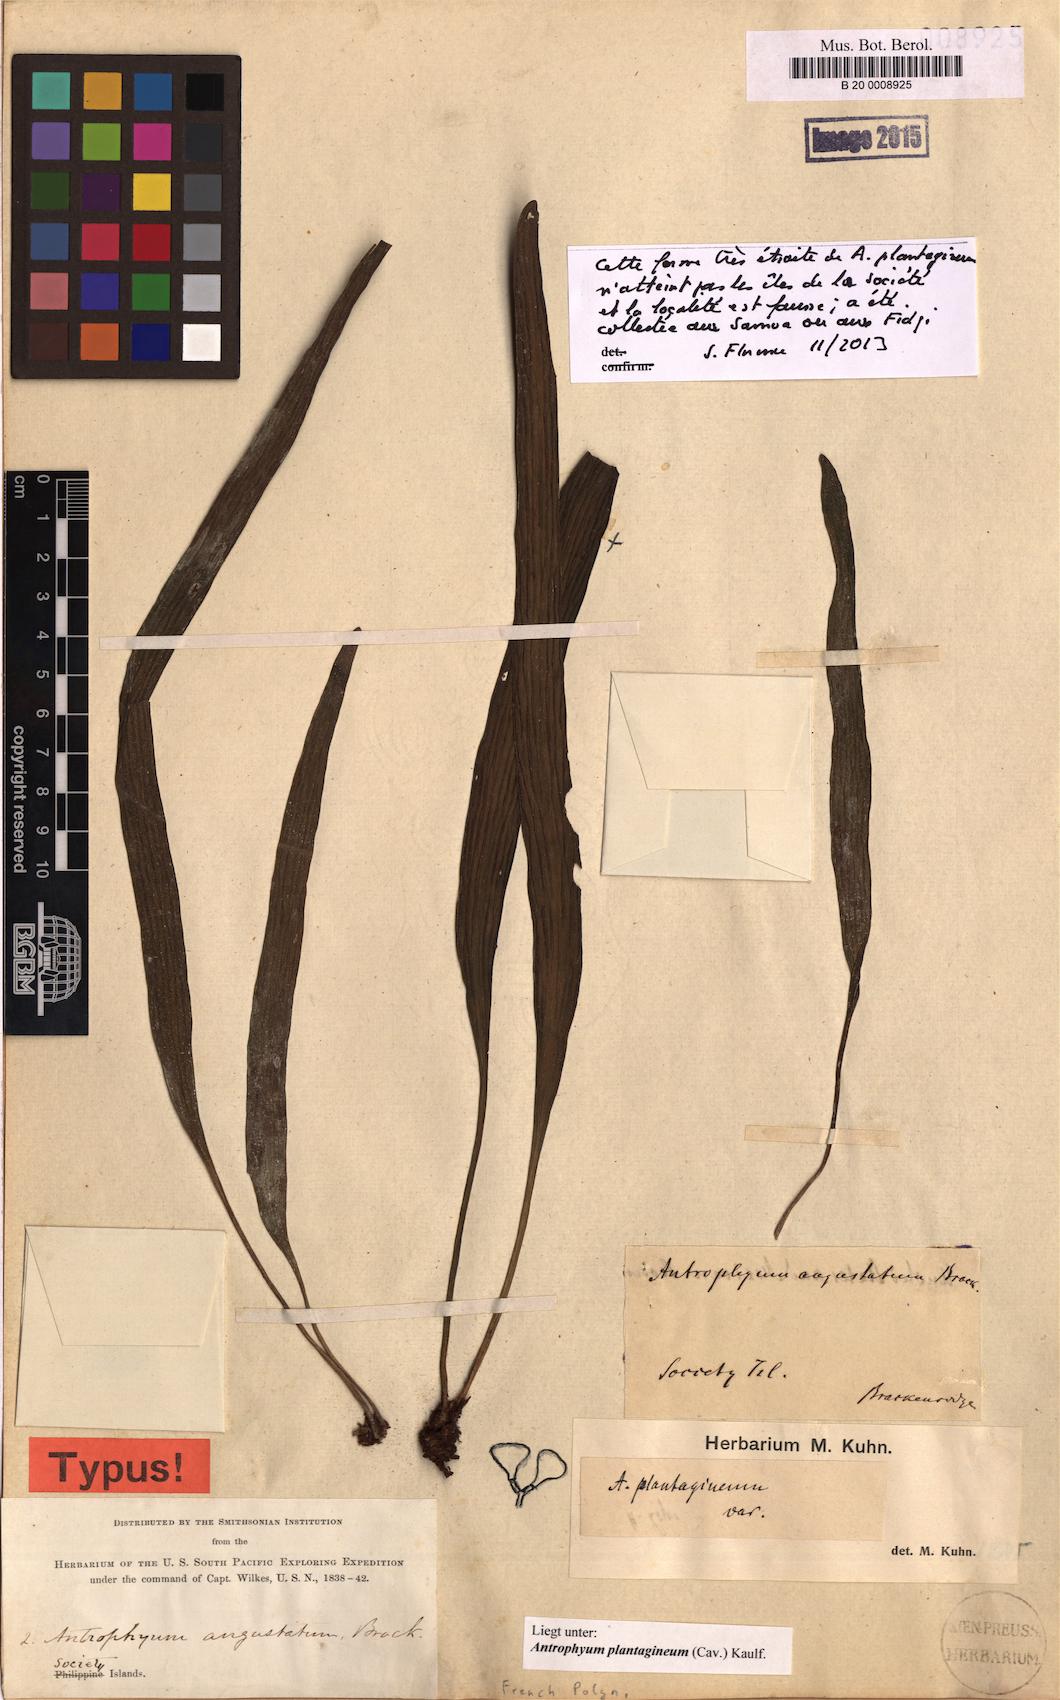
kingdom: Plantae
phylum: Tracheophyta
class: Polypodiopsida
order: Polypodiales
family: Pteridaceae
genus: Antrophyum
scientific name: Antrophyum plantagineum
